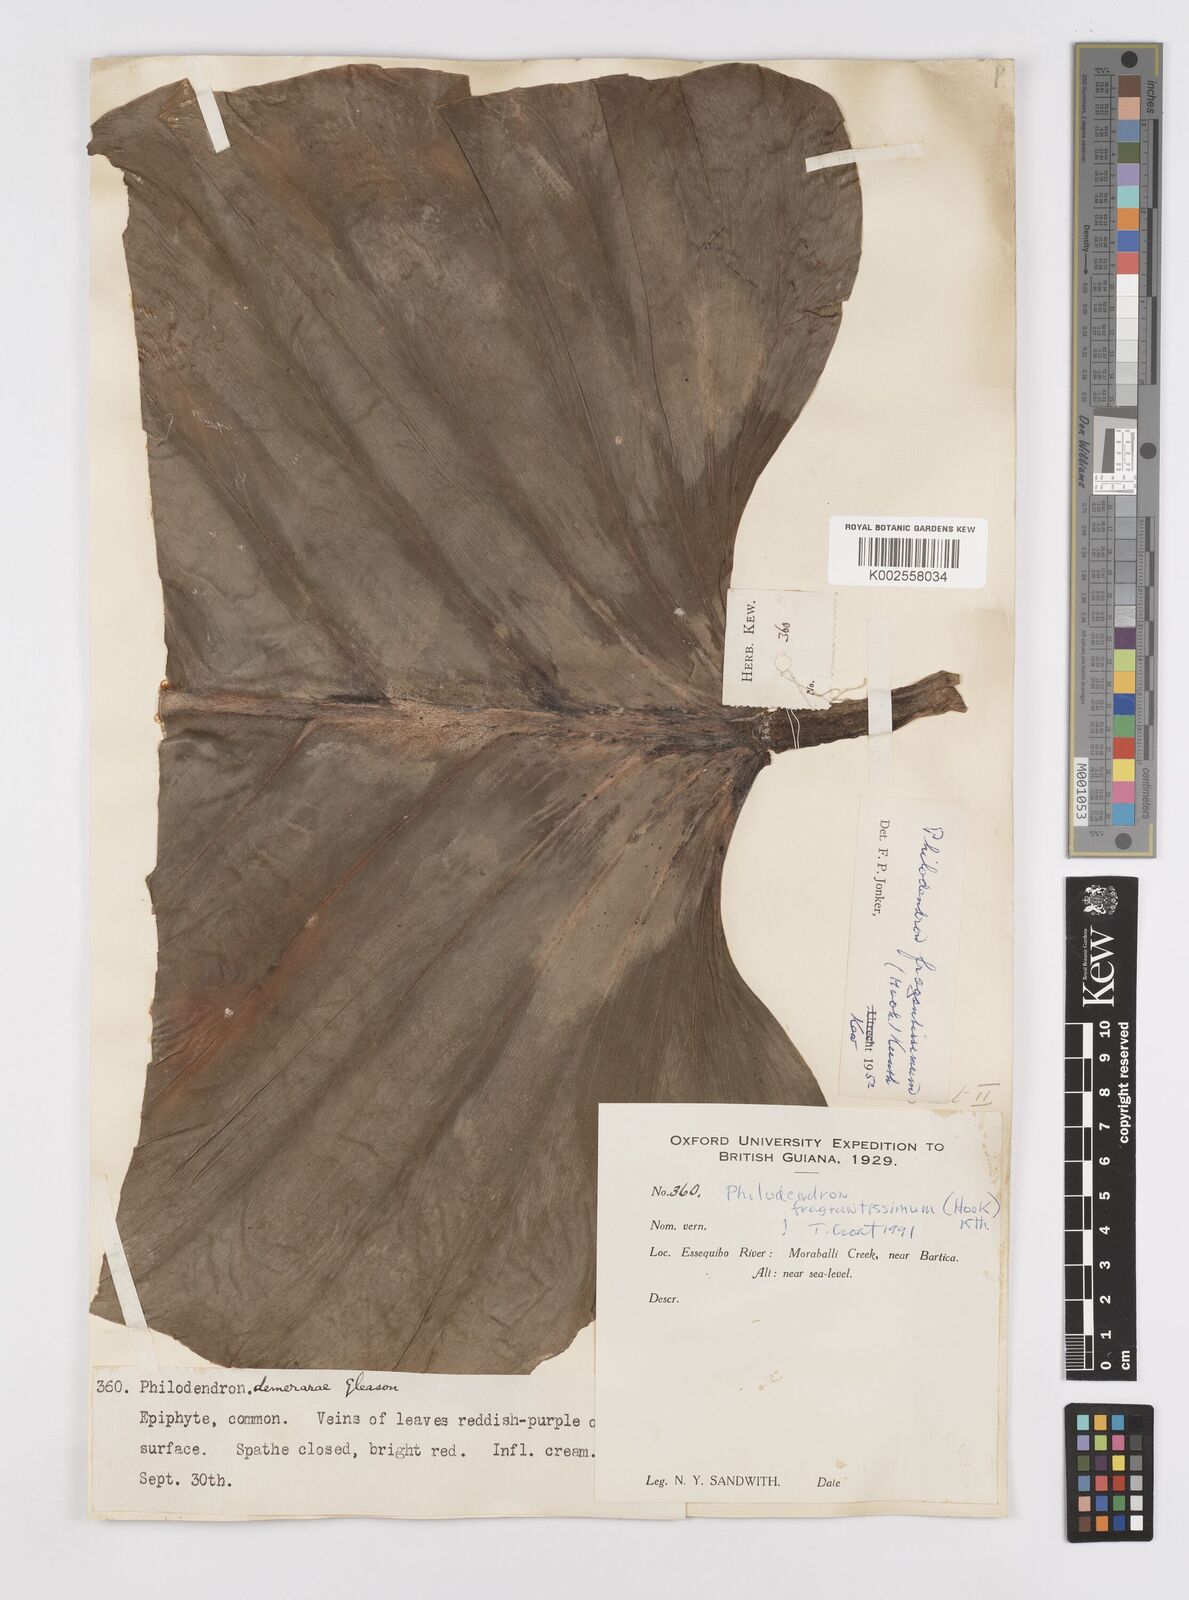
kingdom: Plantae
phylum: Tracheophyta
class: Liliopsida
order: Alismatales
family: Araceae
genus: Philodendron
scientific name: Philodendron fragrantissimum
